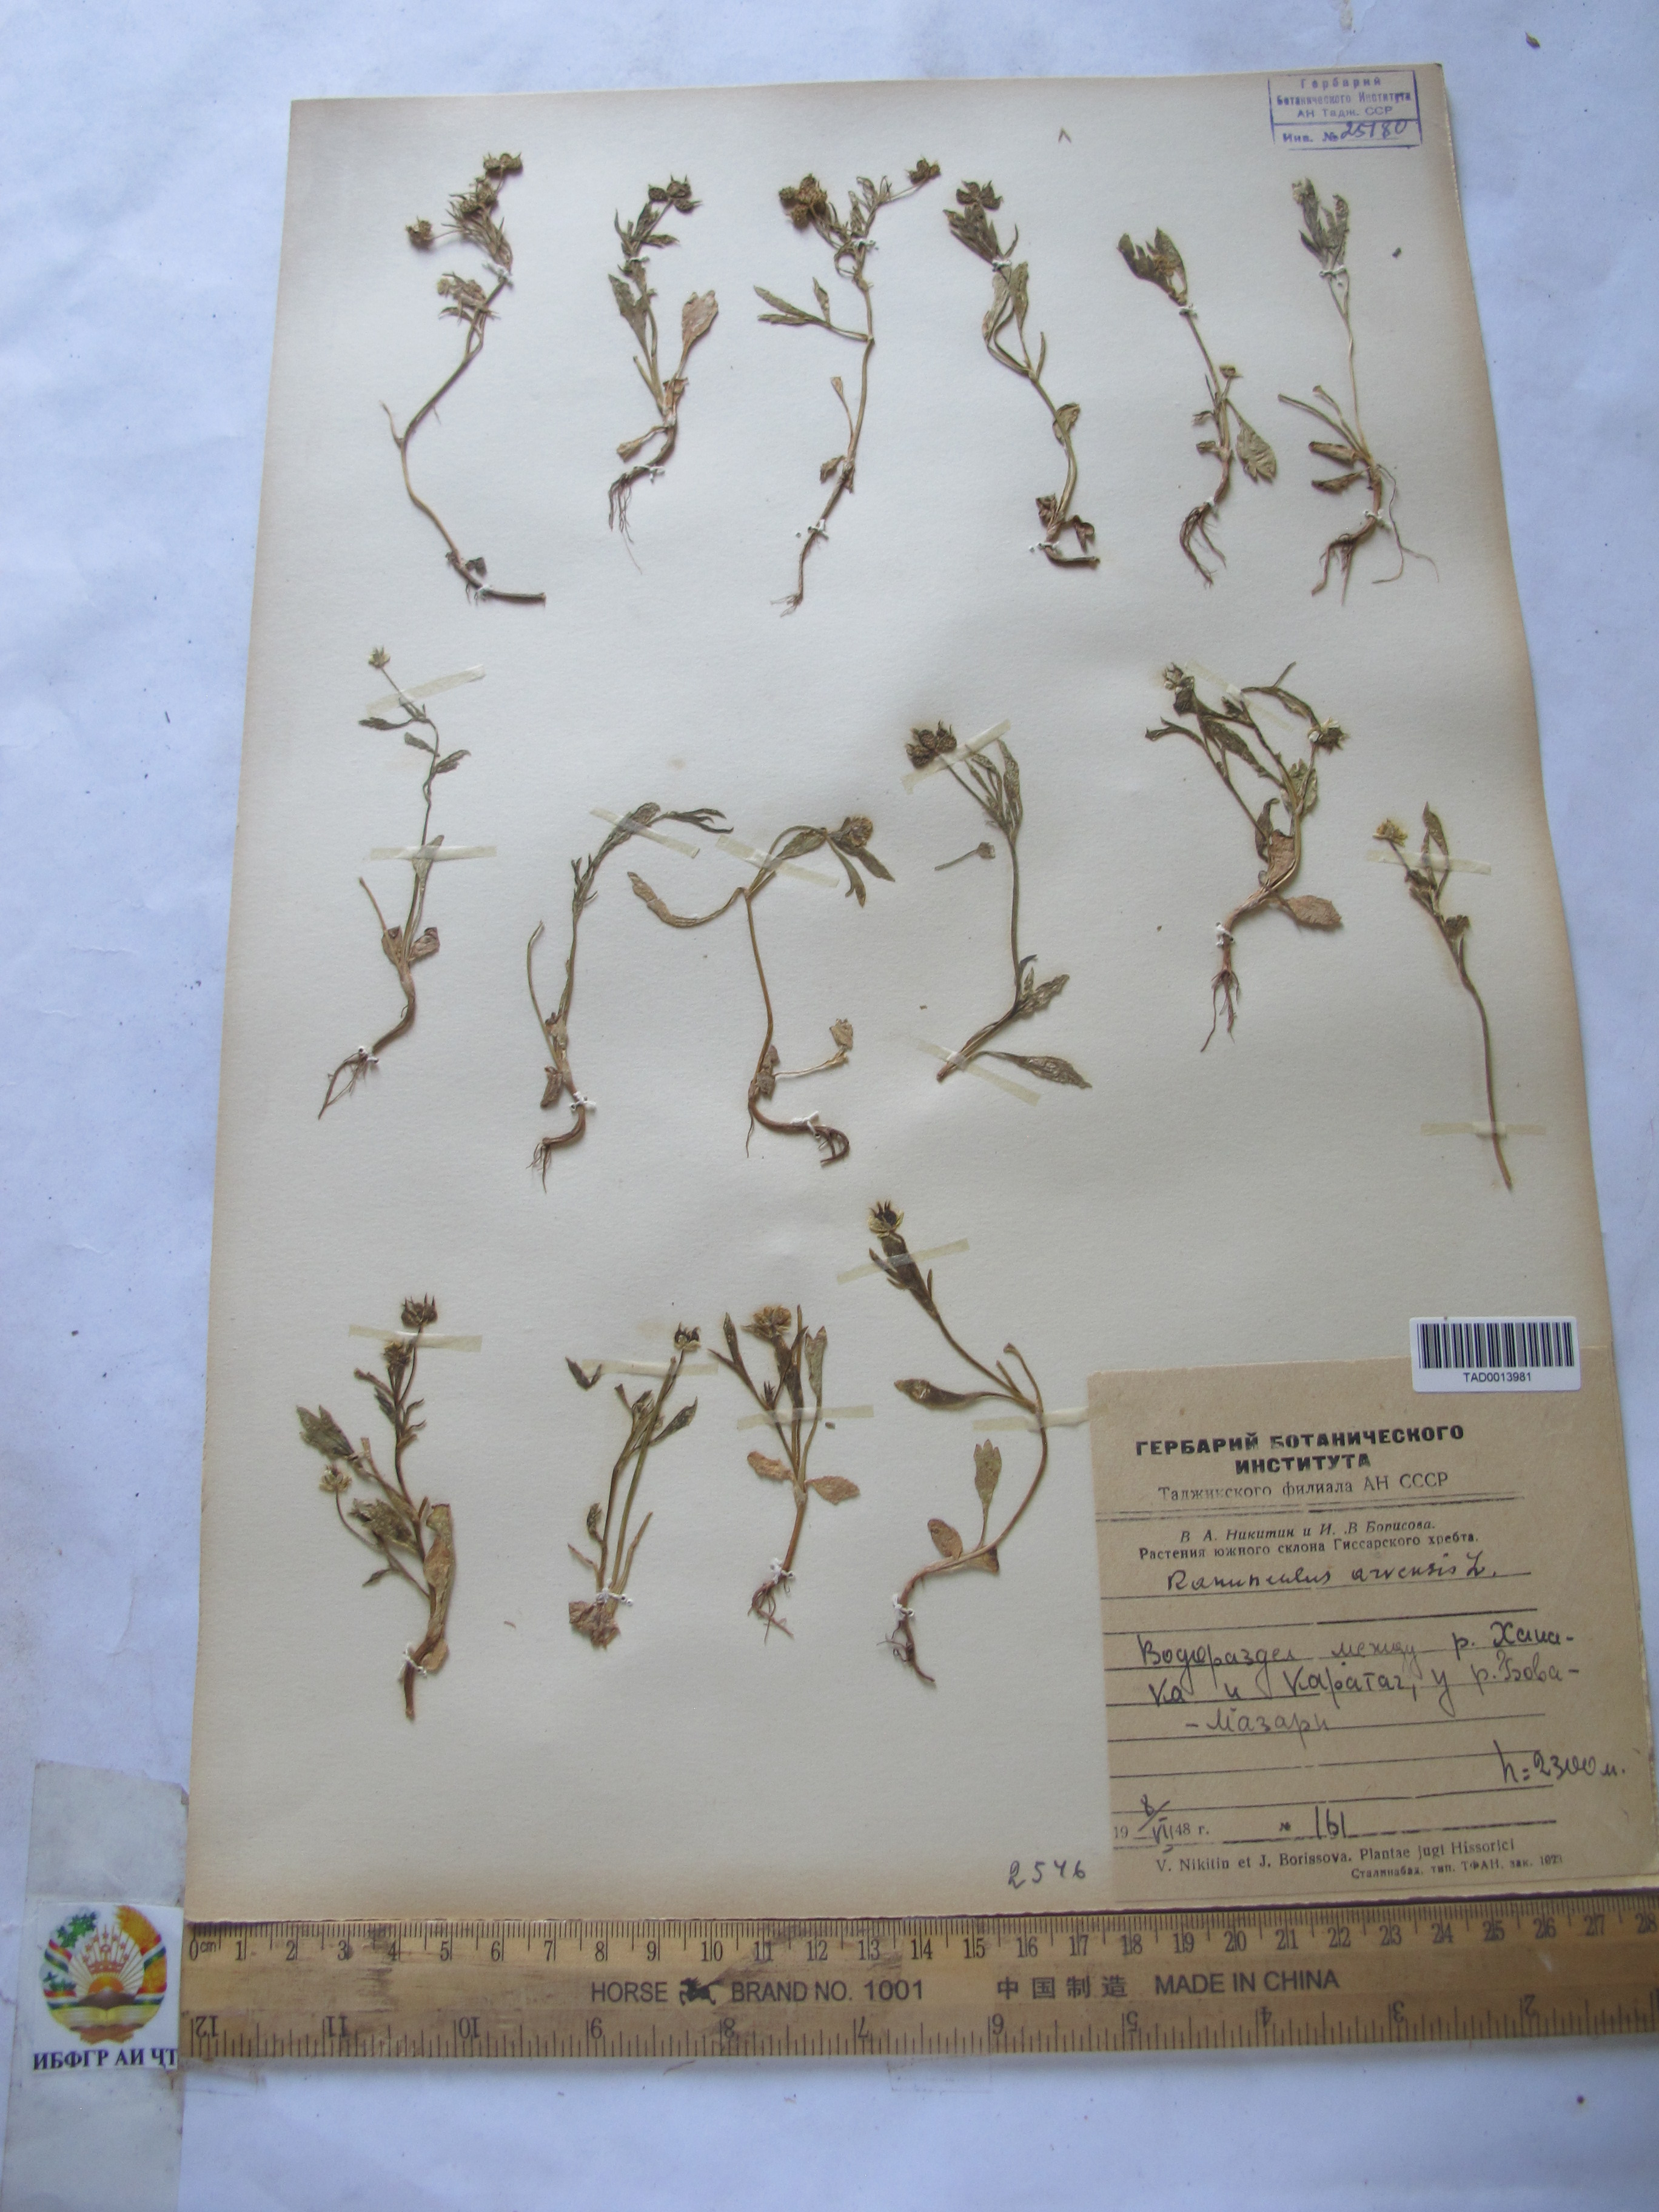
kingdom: Plantae
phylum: Tracheophyta
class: Magnoliopsida
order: Ranunculales
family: Ranunculaceae
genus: Ranunculus
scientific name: Ranunculus arvensis
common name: Corn buttercup
